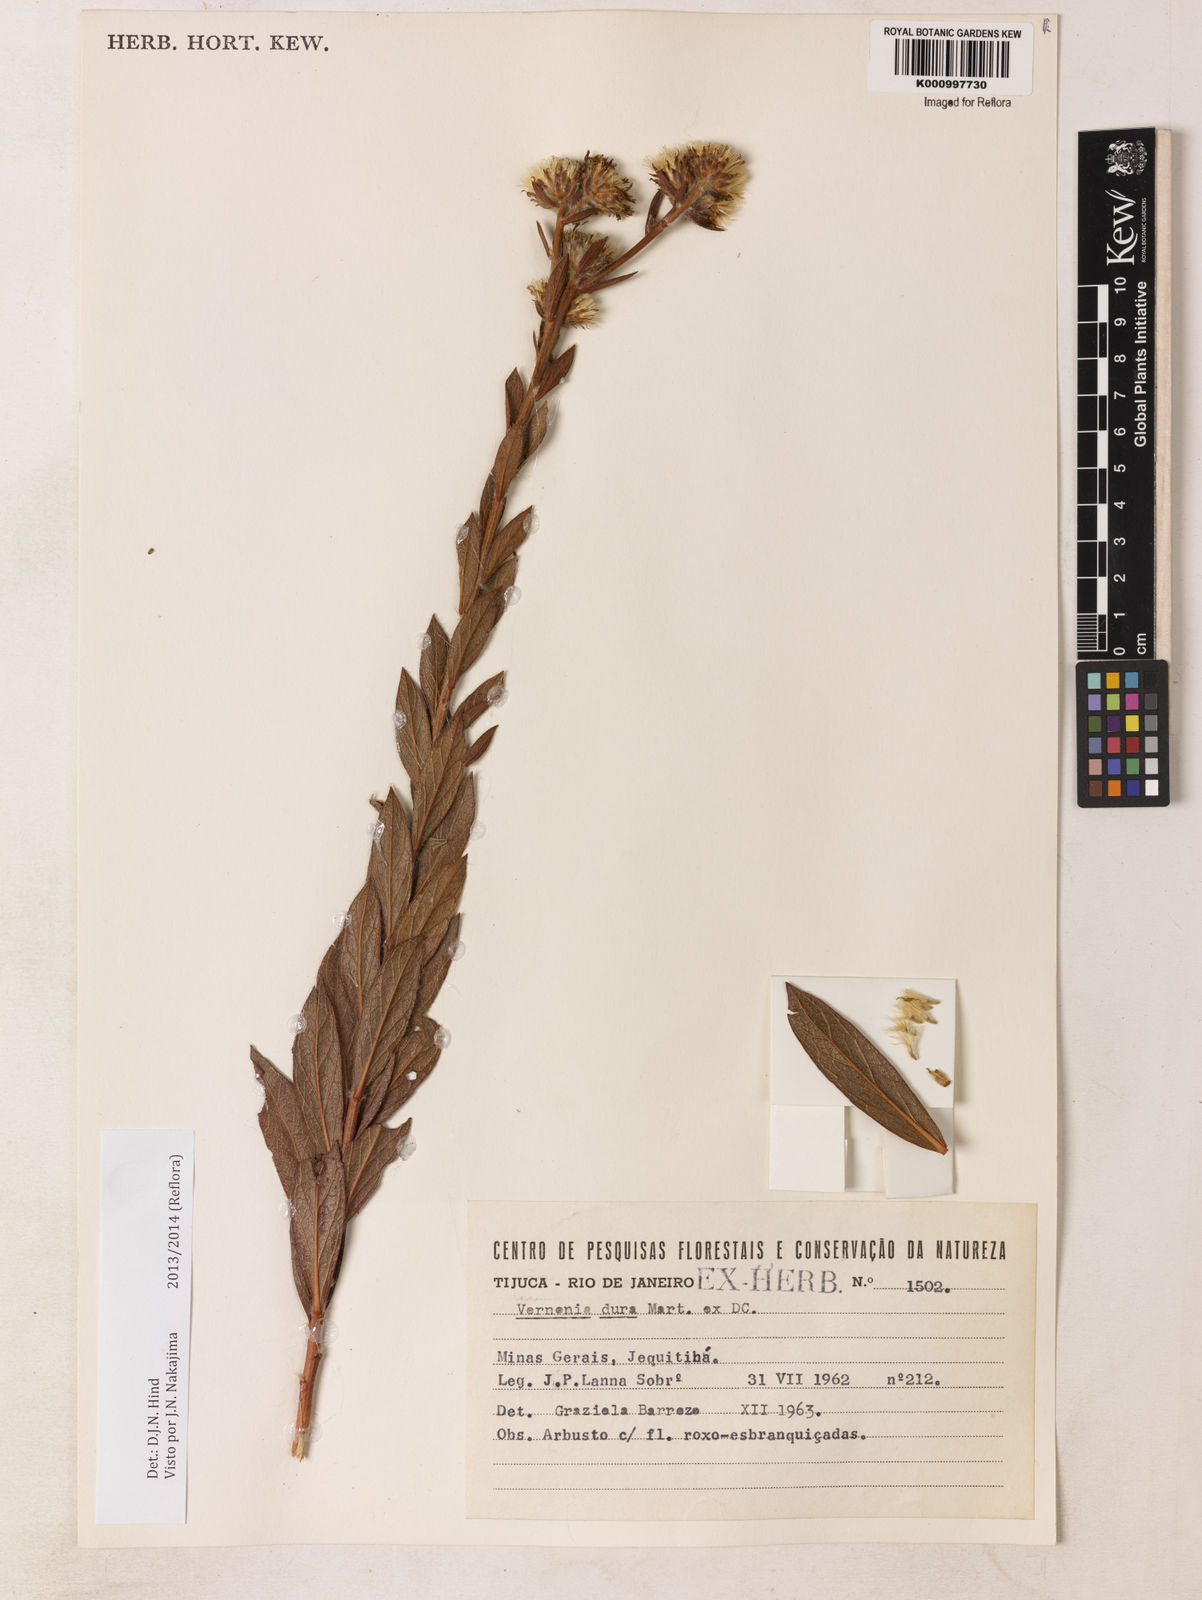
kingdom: Plantae
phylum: Tracheophyta
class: Magnoliopsida
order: Asterales
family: Asteraceae
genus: Lessingianthus
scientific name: Lessingianthus durus
